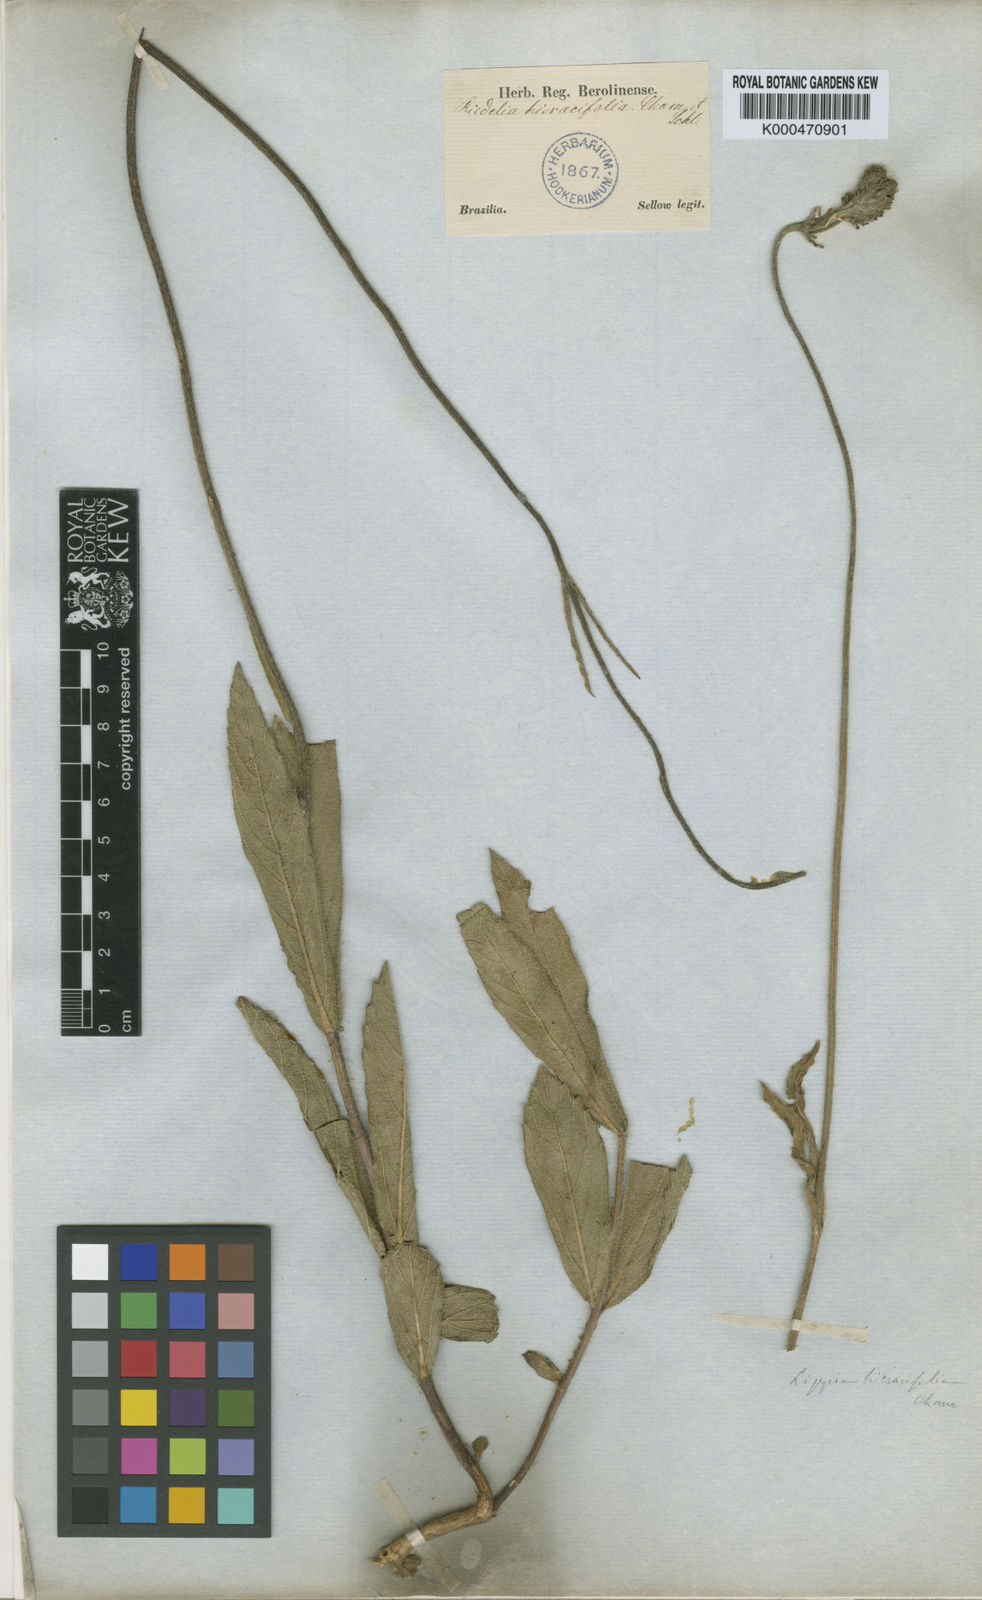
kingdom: Plantae
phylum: Tracheophyta
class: Magnoliopsida
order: Lamiales
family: Verbenaceae
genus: Lippia
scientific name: Lippia hieraciifolia
